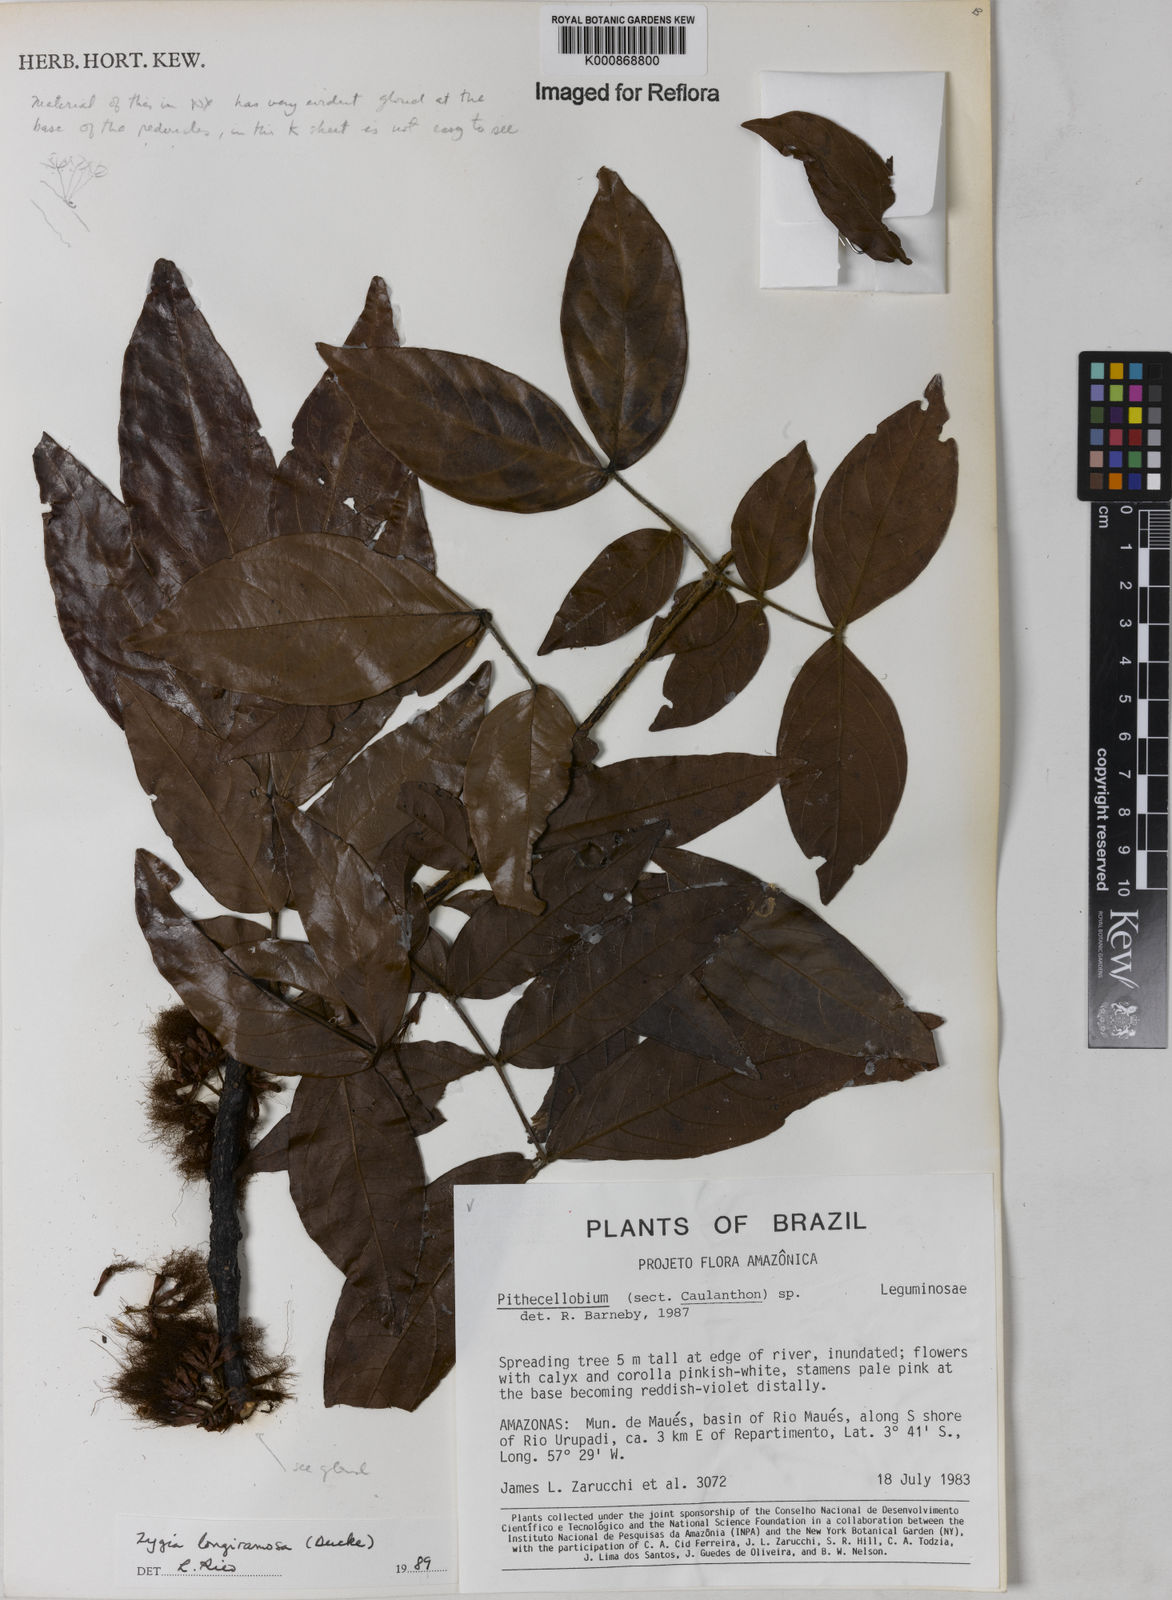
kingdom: Plantae
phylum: Tracheophyta
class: Magnoliopsida
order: Fabales
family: Fabaceae
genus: Zygia
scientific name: Zygia inaequalis
